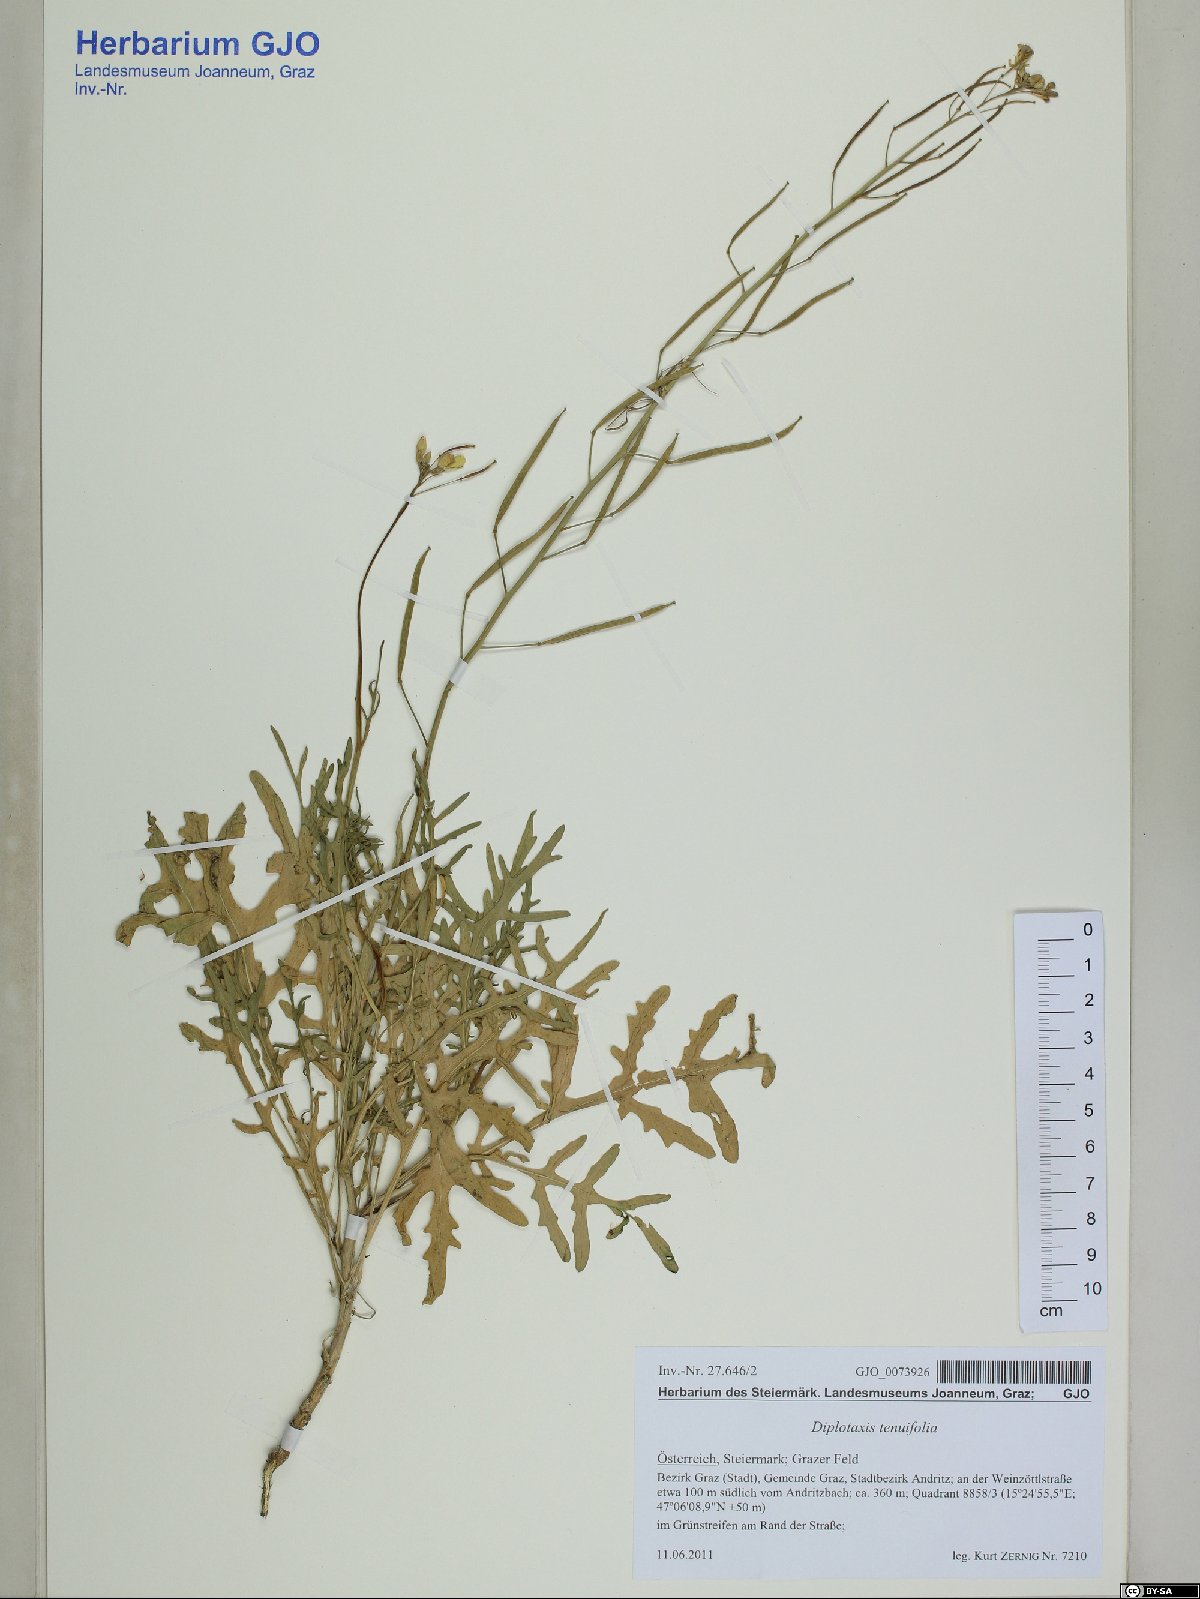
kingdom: Plantae
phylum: Tracheophyta
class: Magnoliopsida
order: Brassicales
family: Brassicaceae
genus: Diplotaxis
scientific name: Diplotaxis tenuifolia
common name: Perennial wall-rocket
